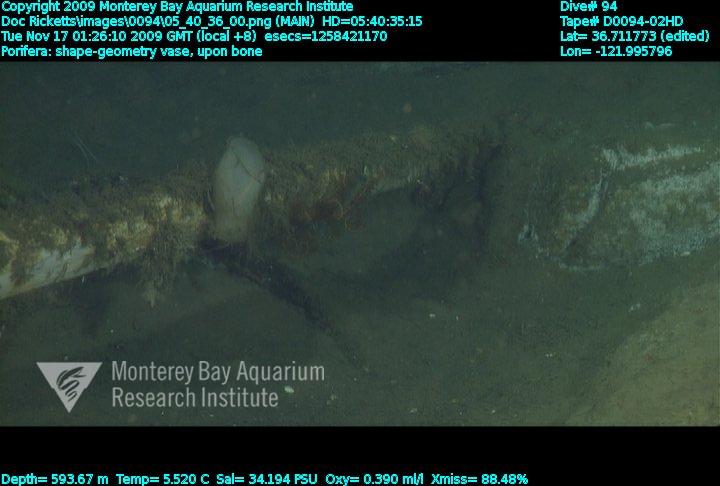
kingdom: Animalia
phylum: Porifera
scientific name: Porifera
